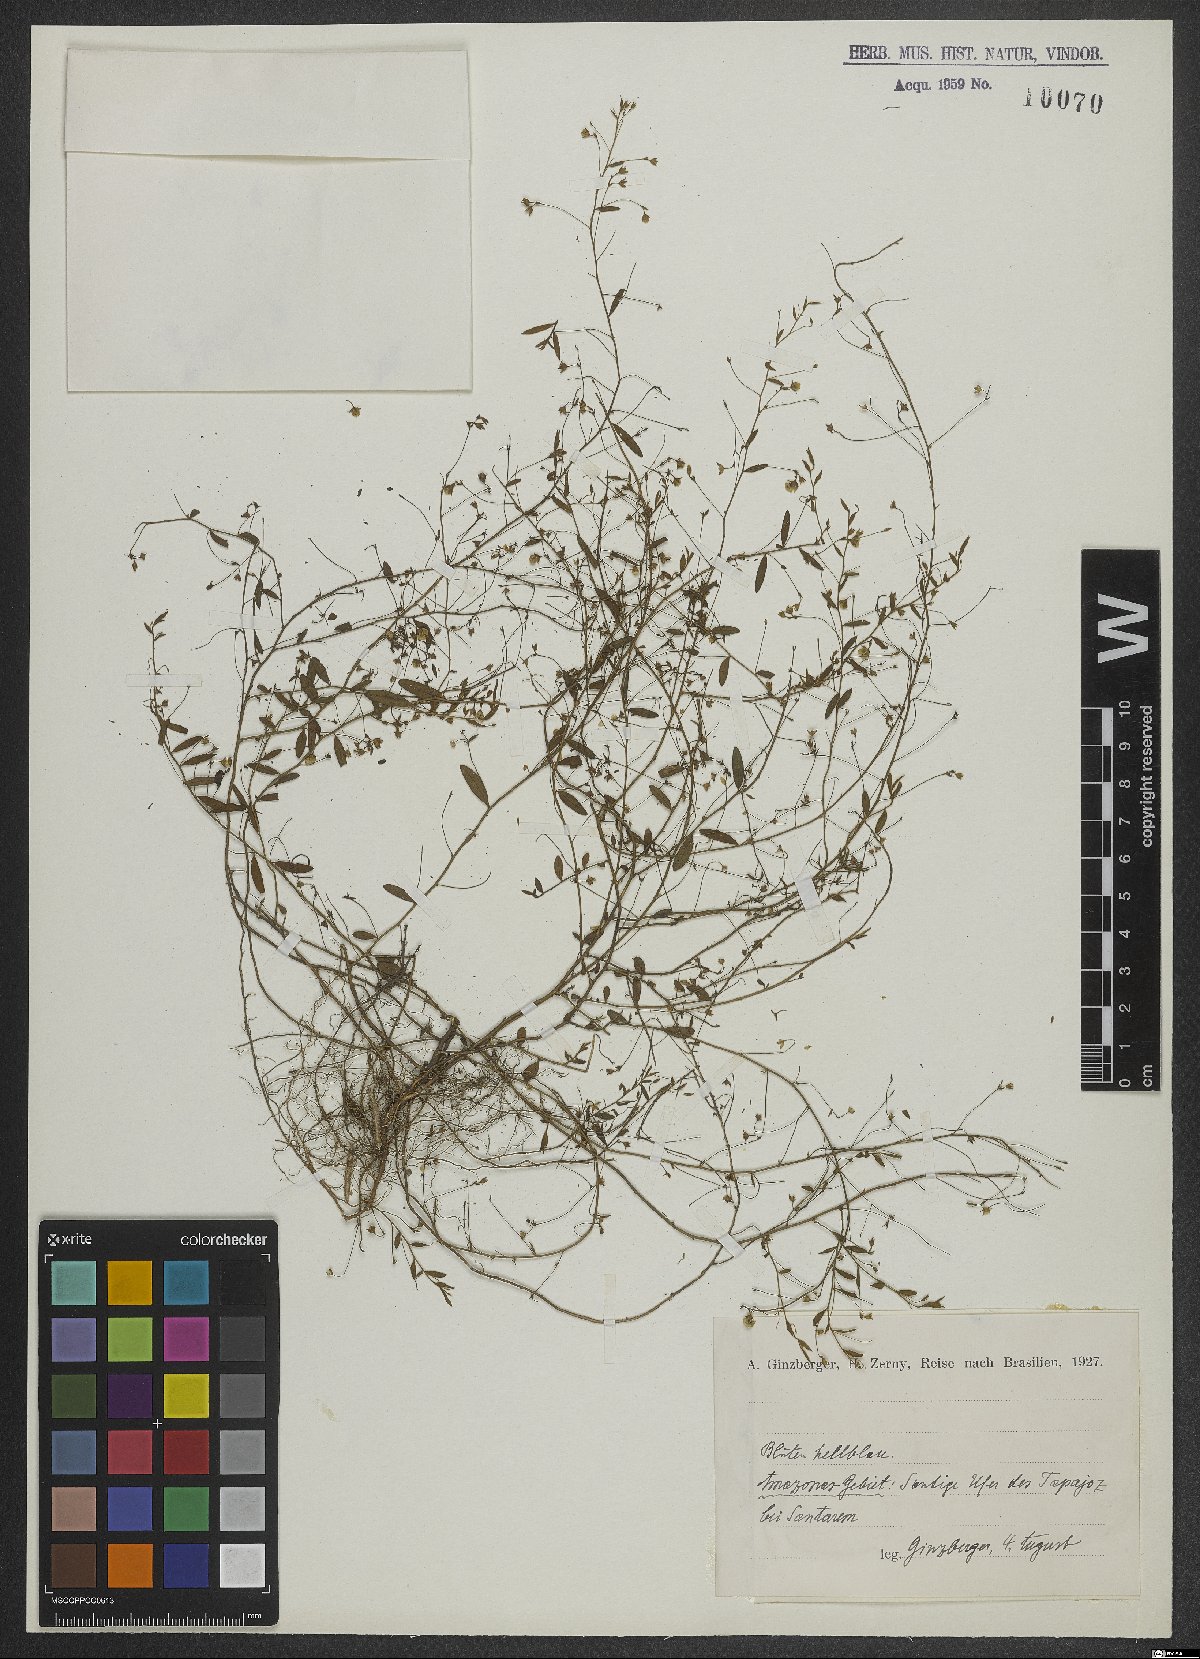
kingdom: Plantae
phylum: Tracheophyta
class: Magnoliopsida
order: Lamiales
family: Scrophulariaceae
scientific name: Scrophulariaceae
